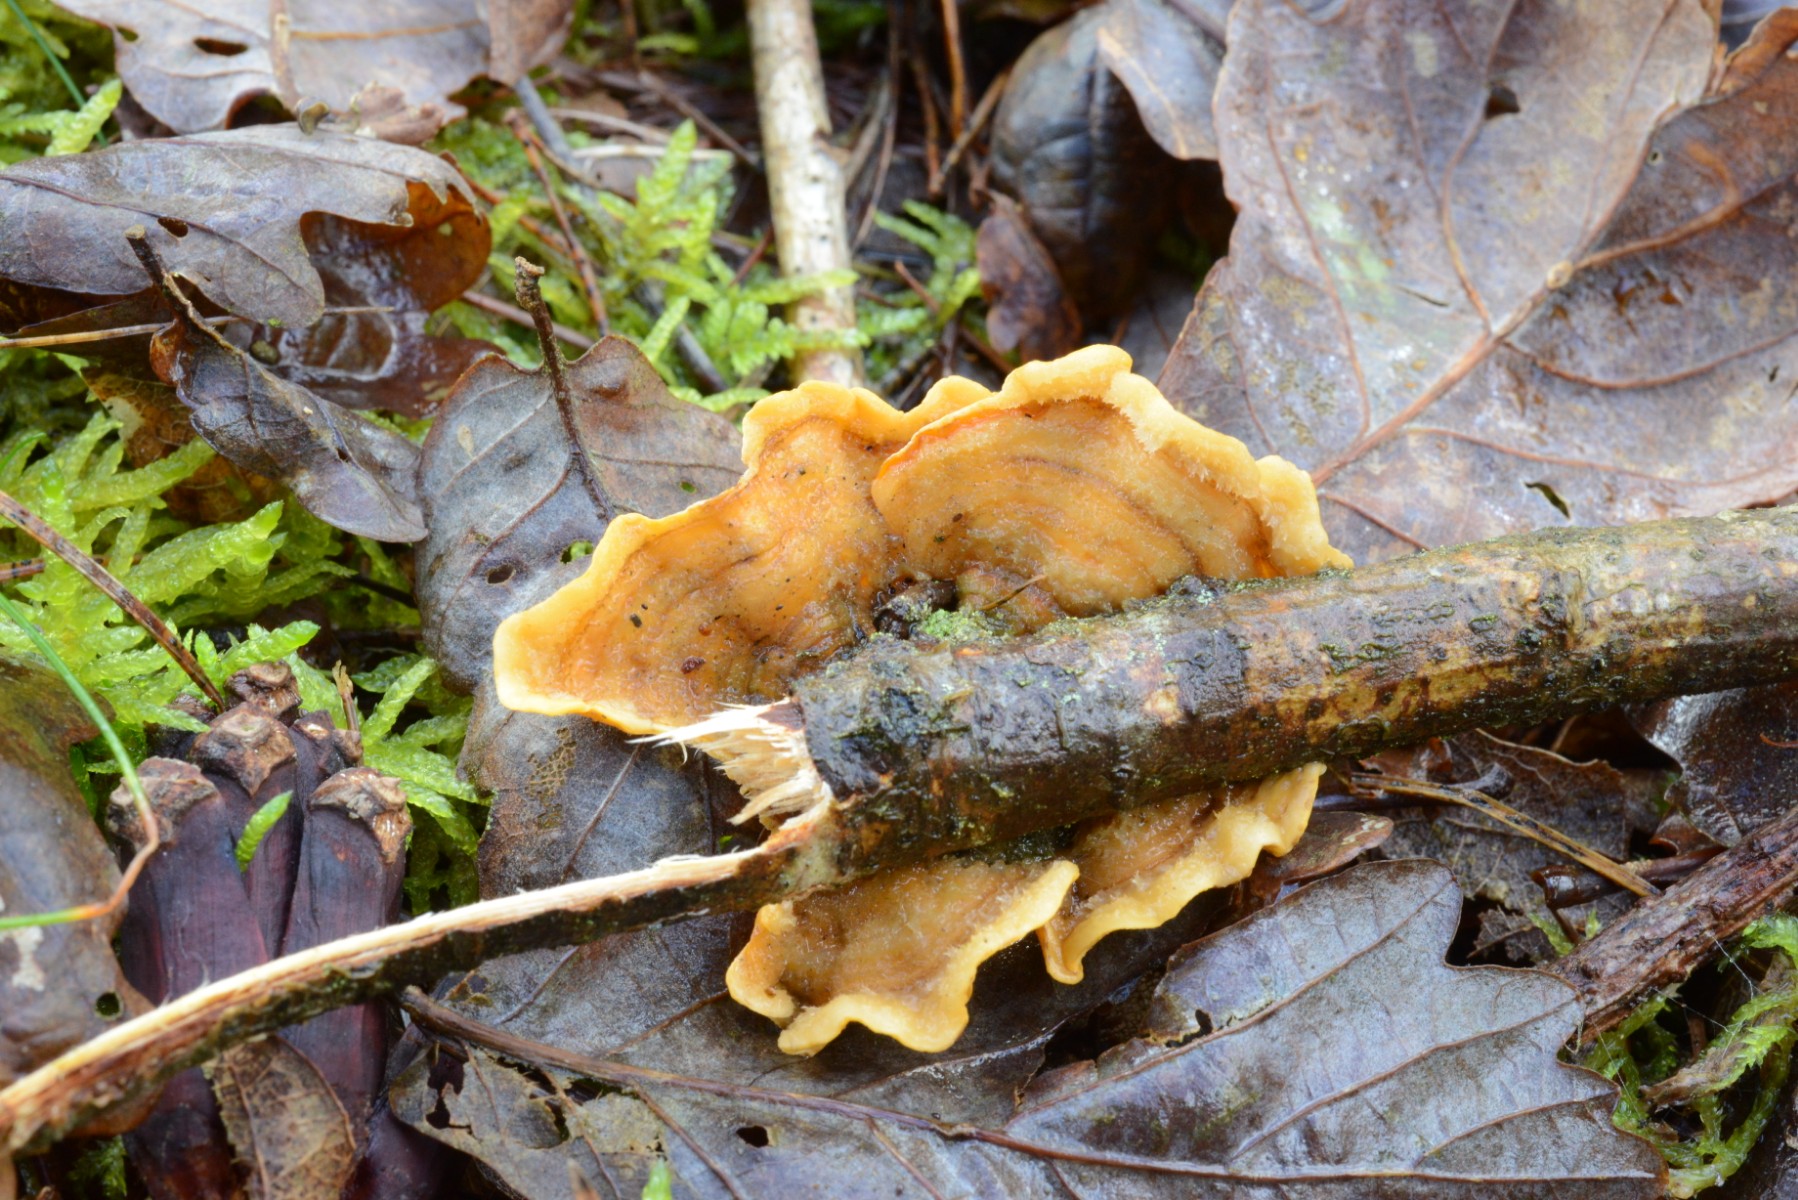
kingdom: Fungi
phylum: Basidiomycota
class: Agaricomycetes
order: Russulales
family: Stereaceae
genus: Stereum
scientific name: Stereum subtomentosum
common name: smuk lædersvamp
